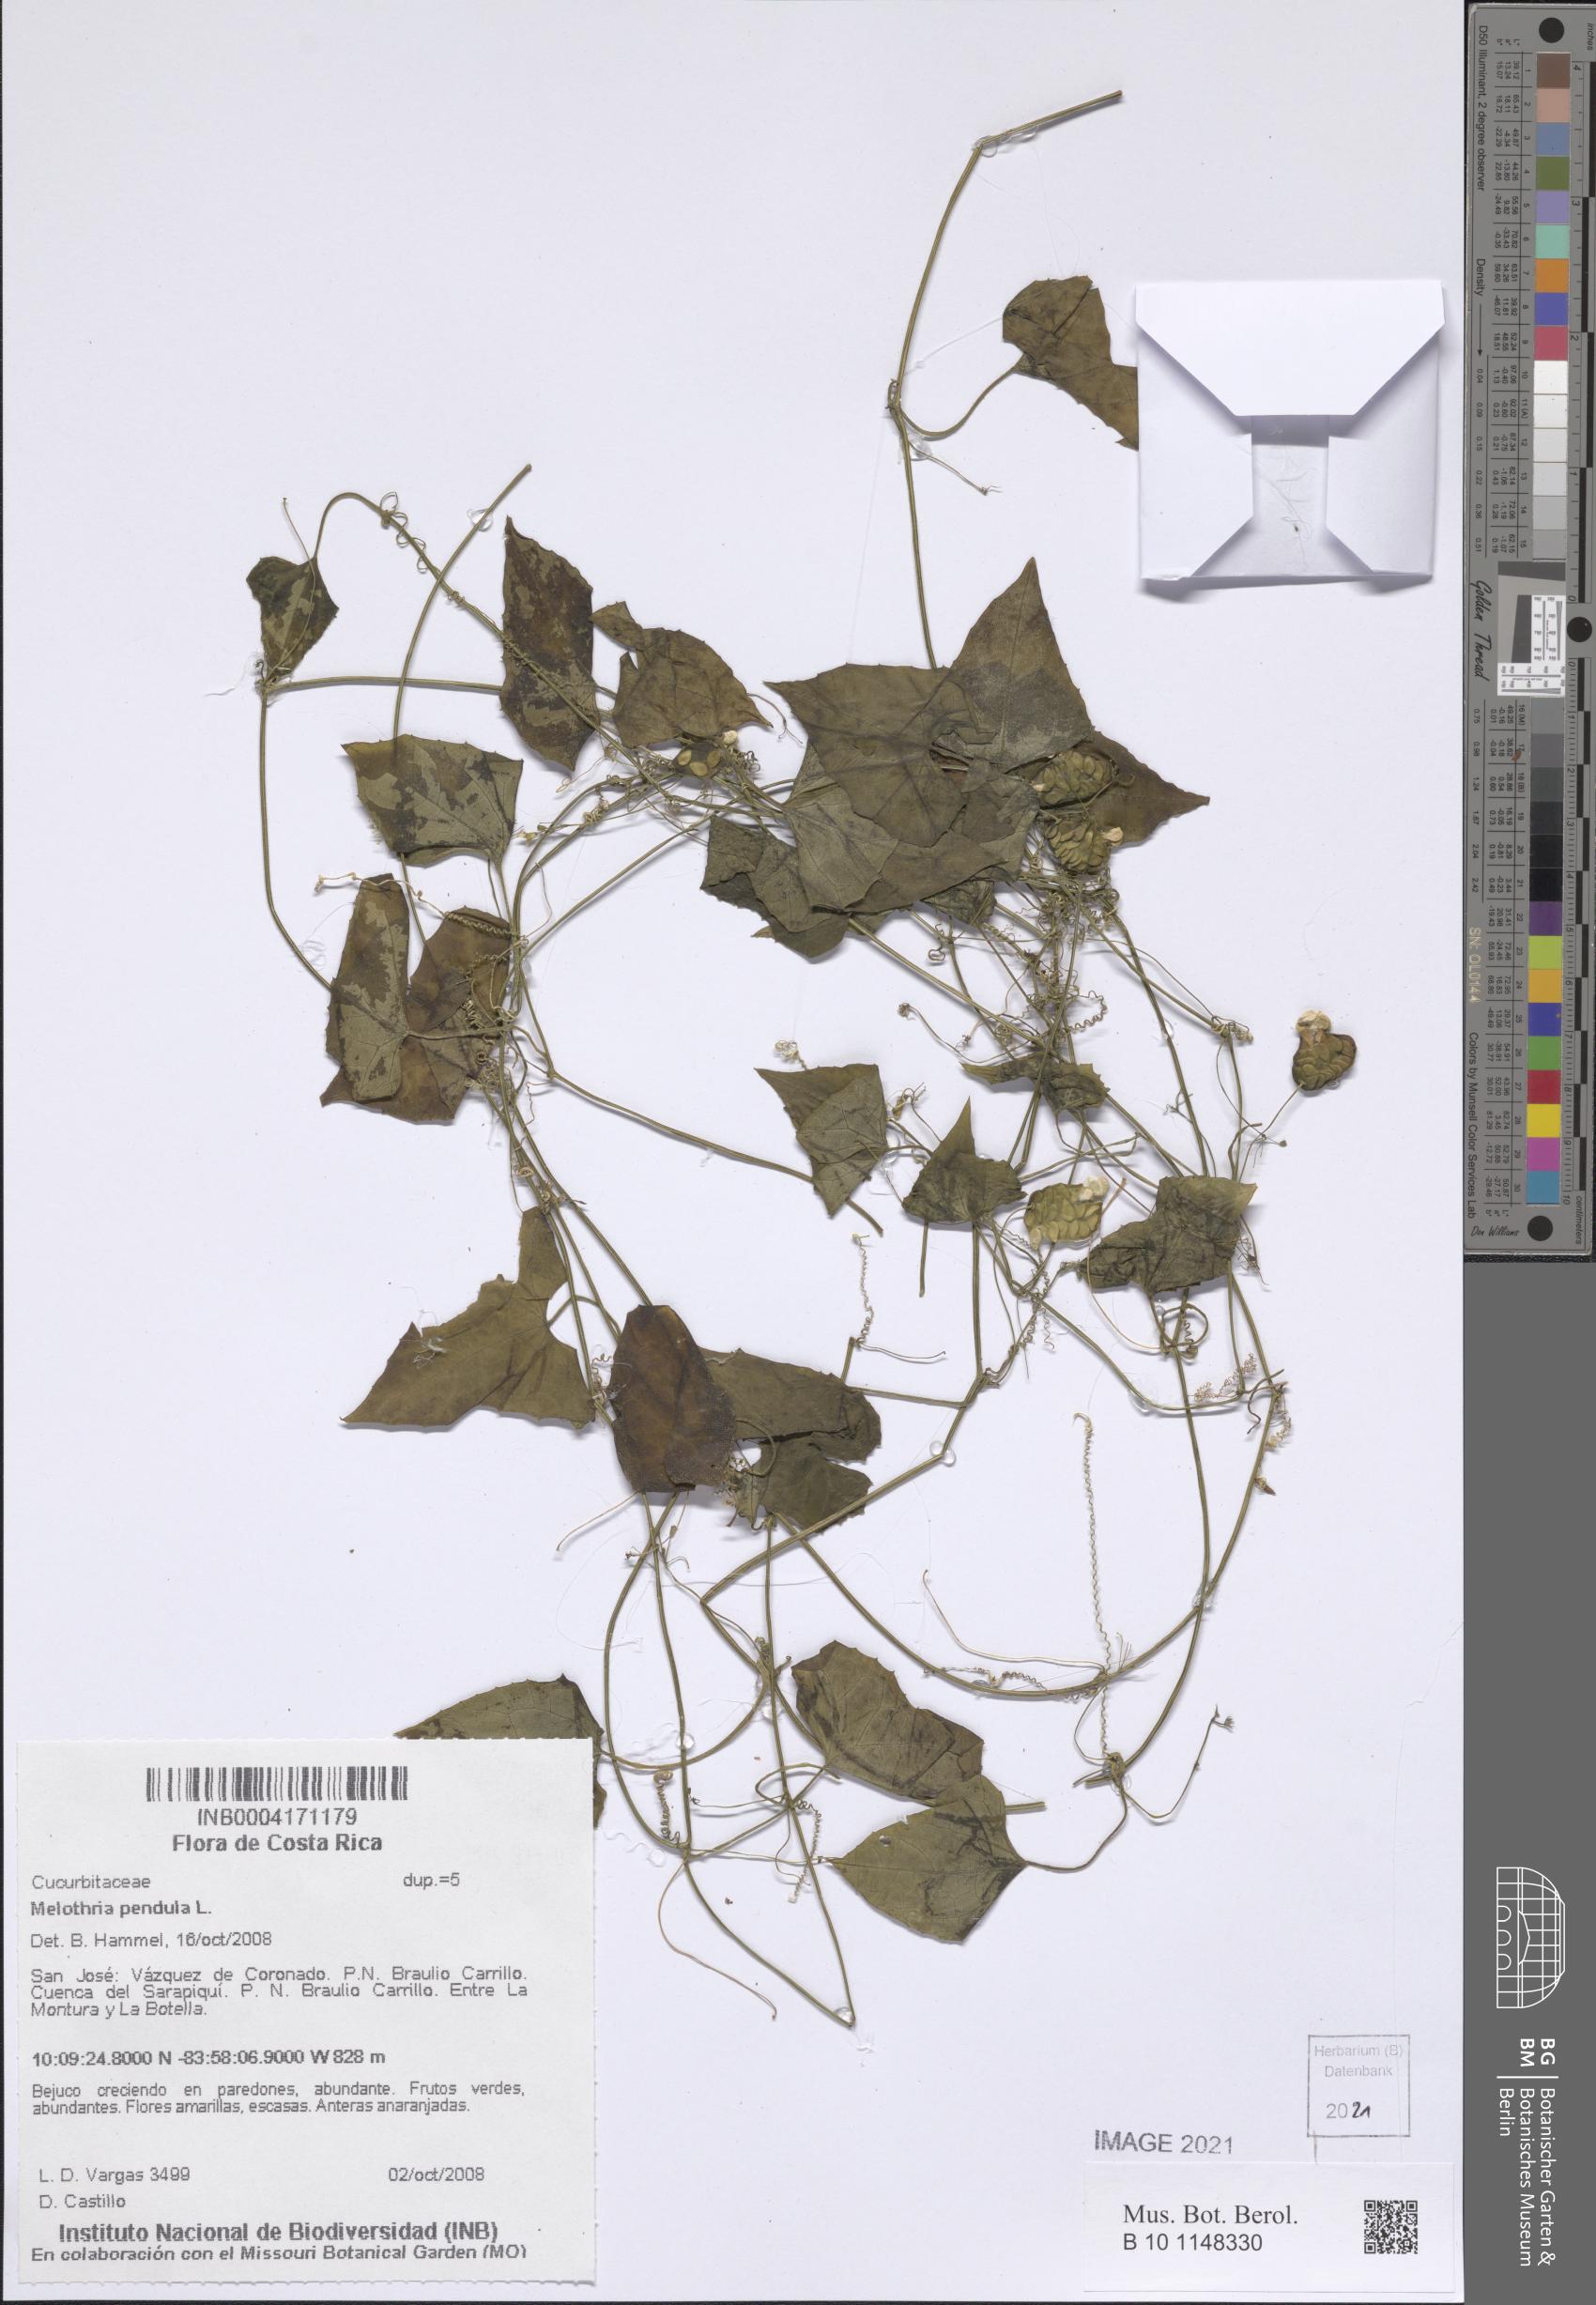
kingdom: Plantae
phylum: Tracheophyta
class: Magnoliopsida
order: Cucurbitales
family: Cucurbitaceae
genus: Melothria
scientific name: Melothria pendula
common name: Creeping-cucumber
